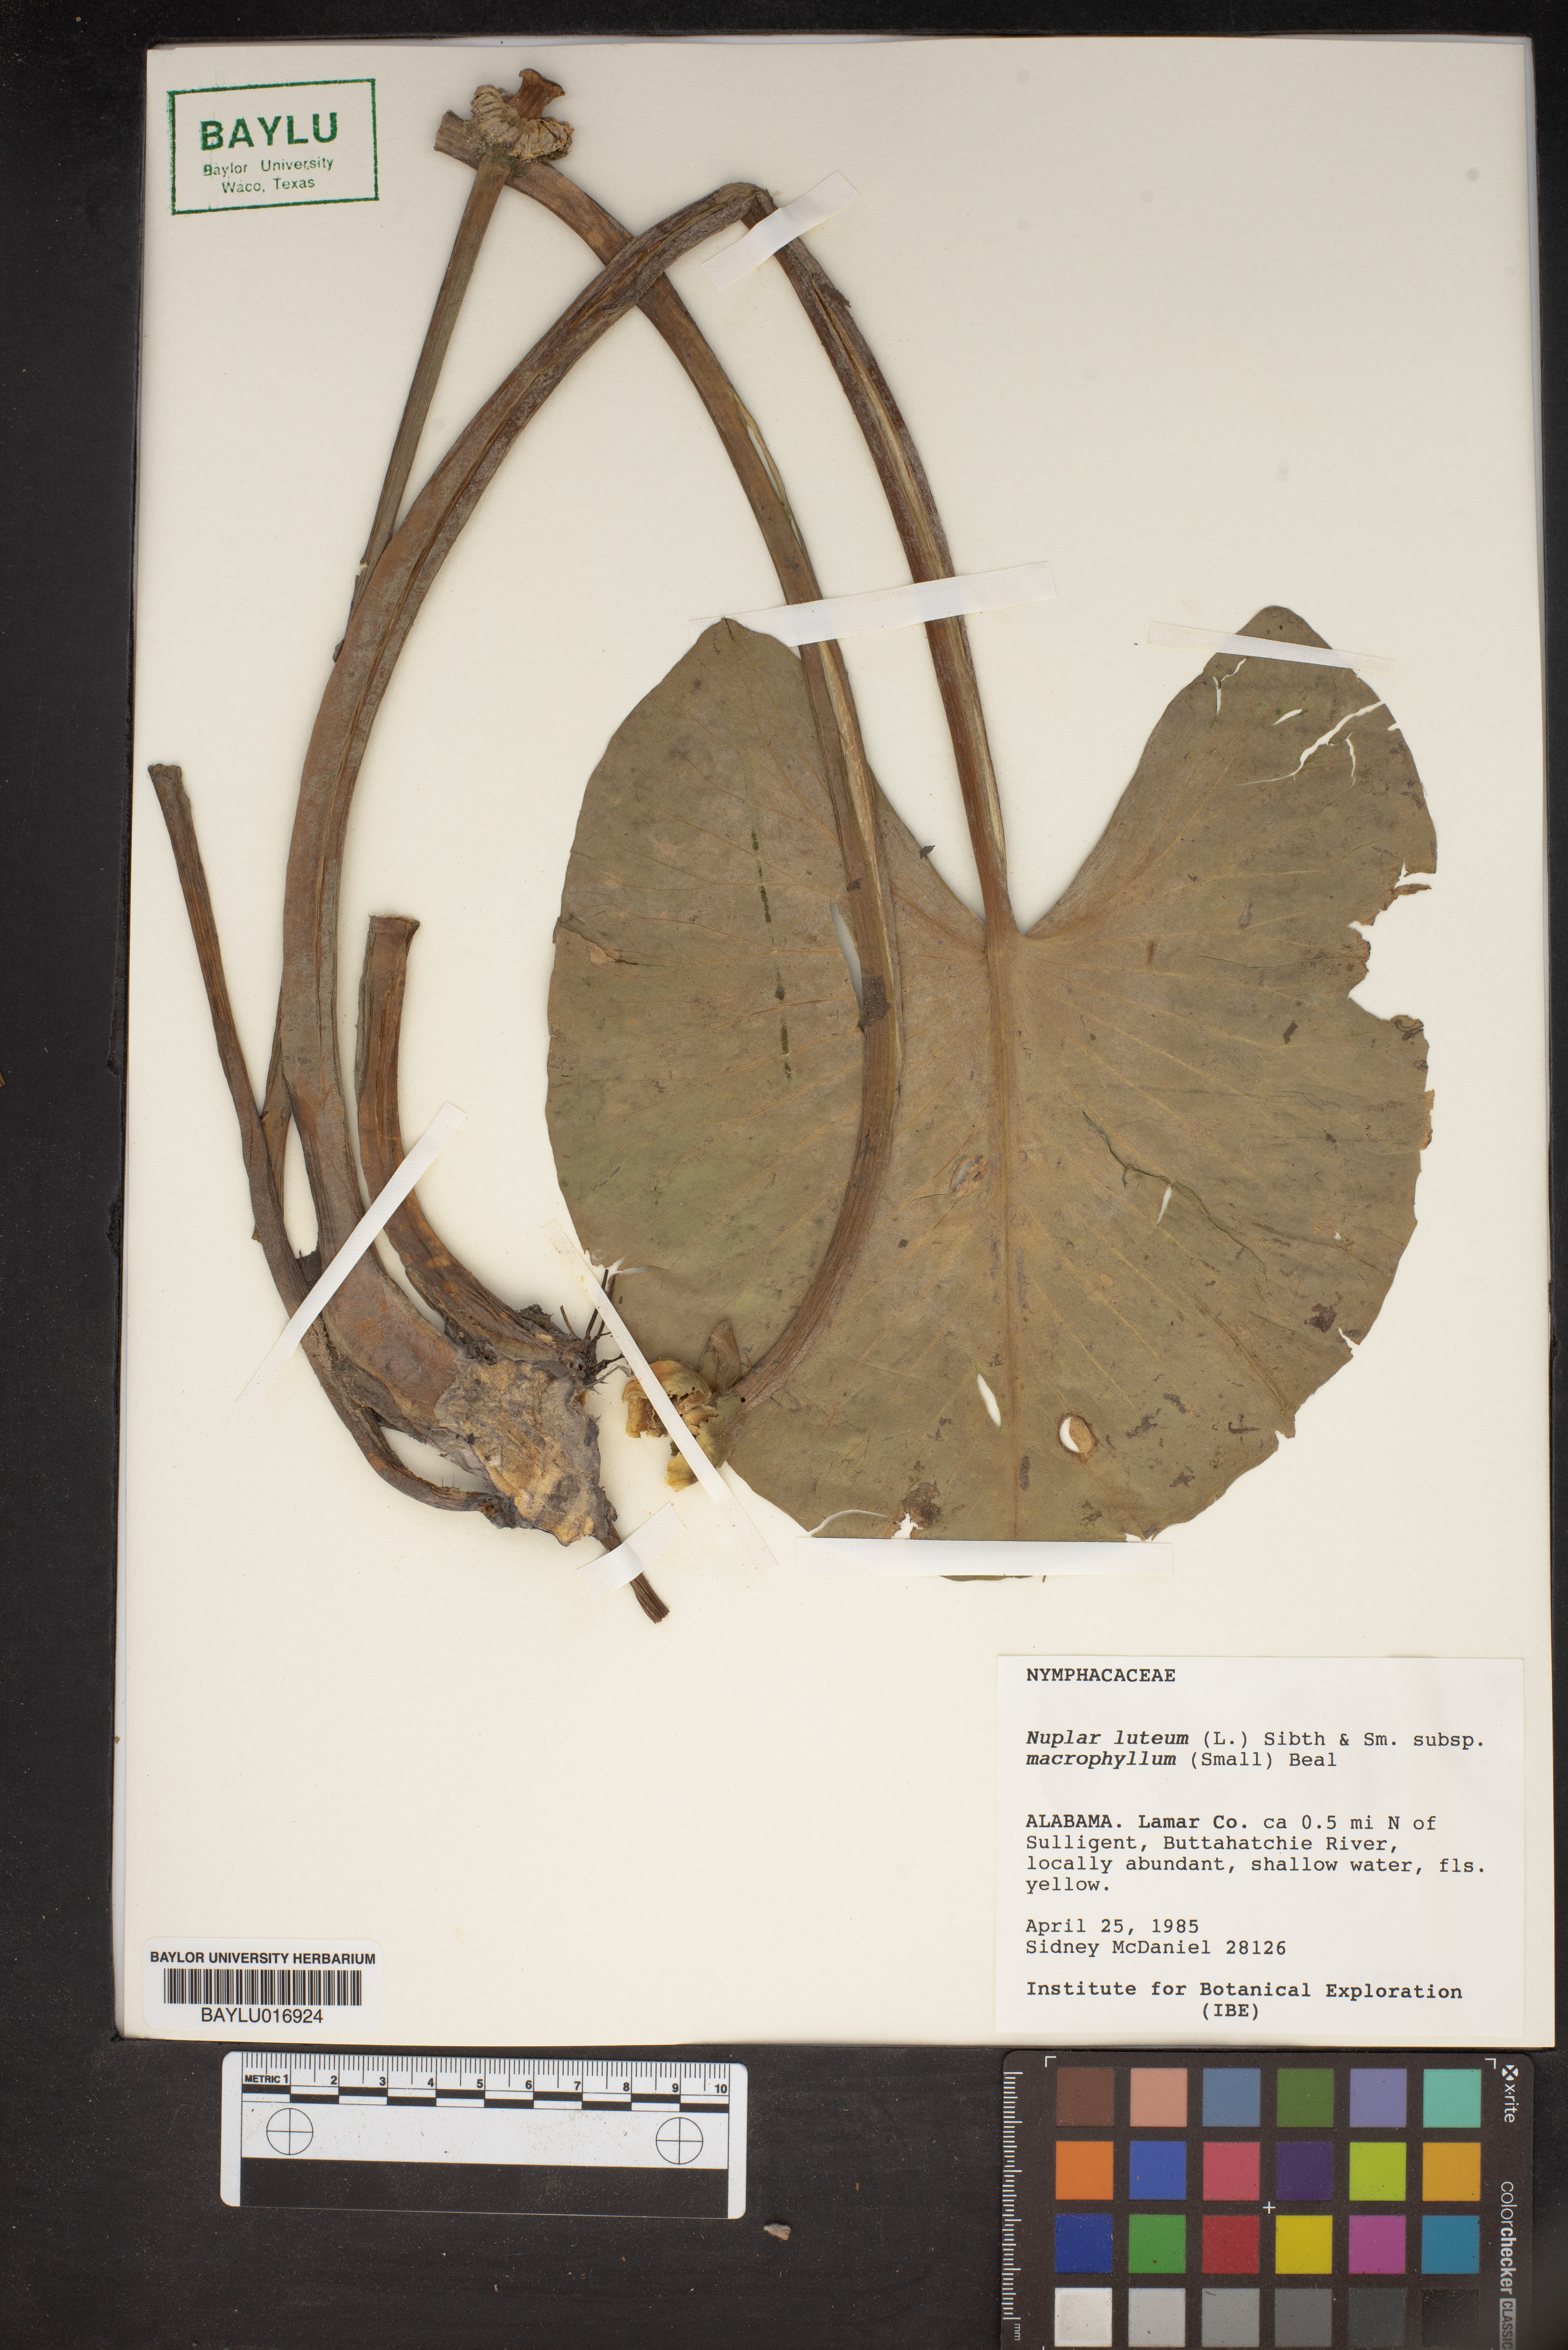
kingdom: Plantae
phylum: Tracheophyta
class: Magnoliopsida
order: Nymphaeales
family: Nymphaeaceae
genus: Nuphar
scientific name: Nuphar advena
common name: Spatter-dock
